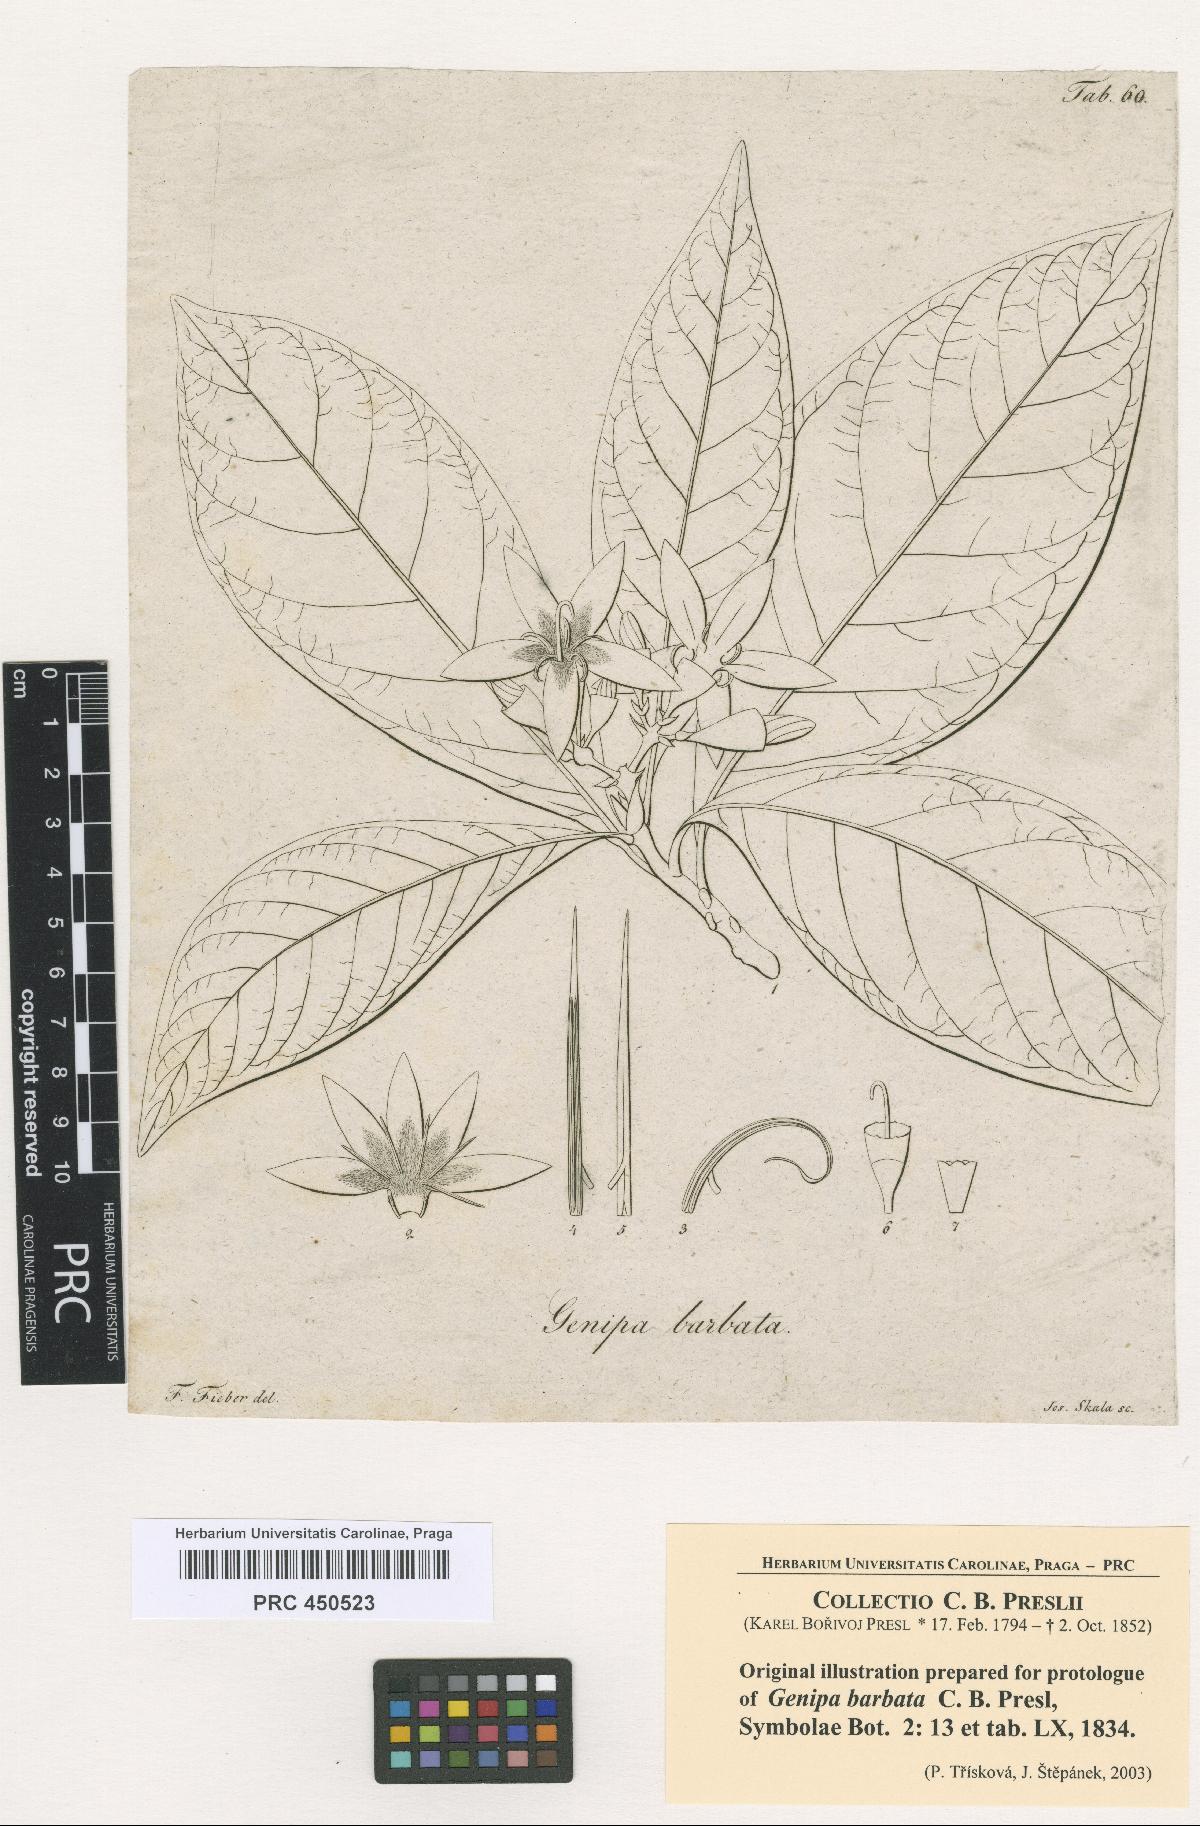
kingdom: Plantae
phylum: Tracheophyta
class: Magnoliopsida
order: Gentianales
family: Rubiaceae
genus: Genipa
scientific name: Genipa americana
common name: Genipap
